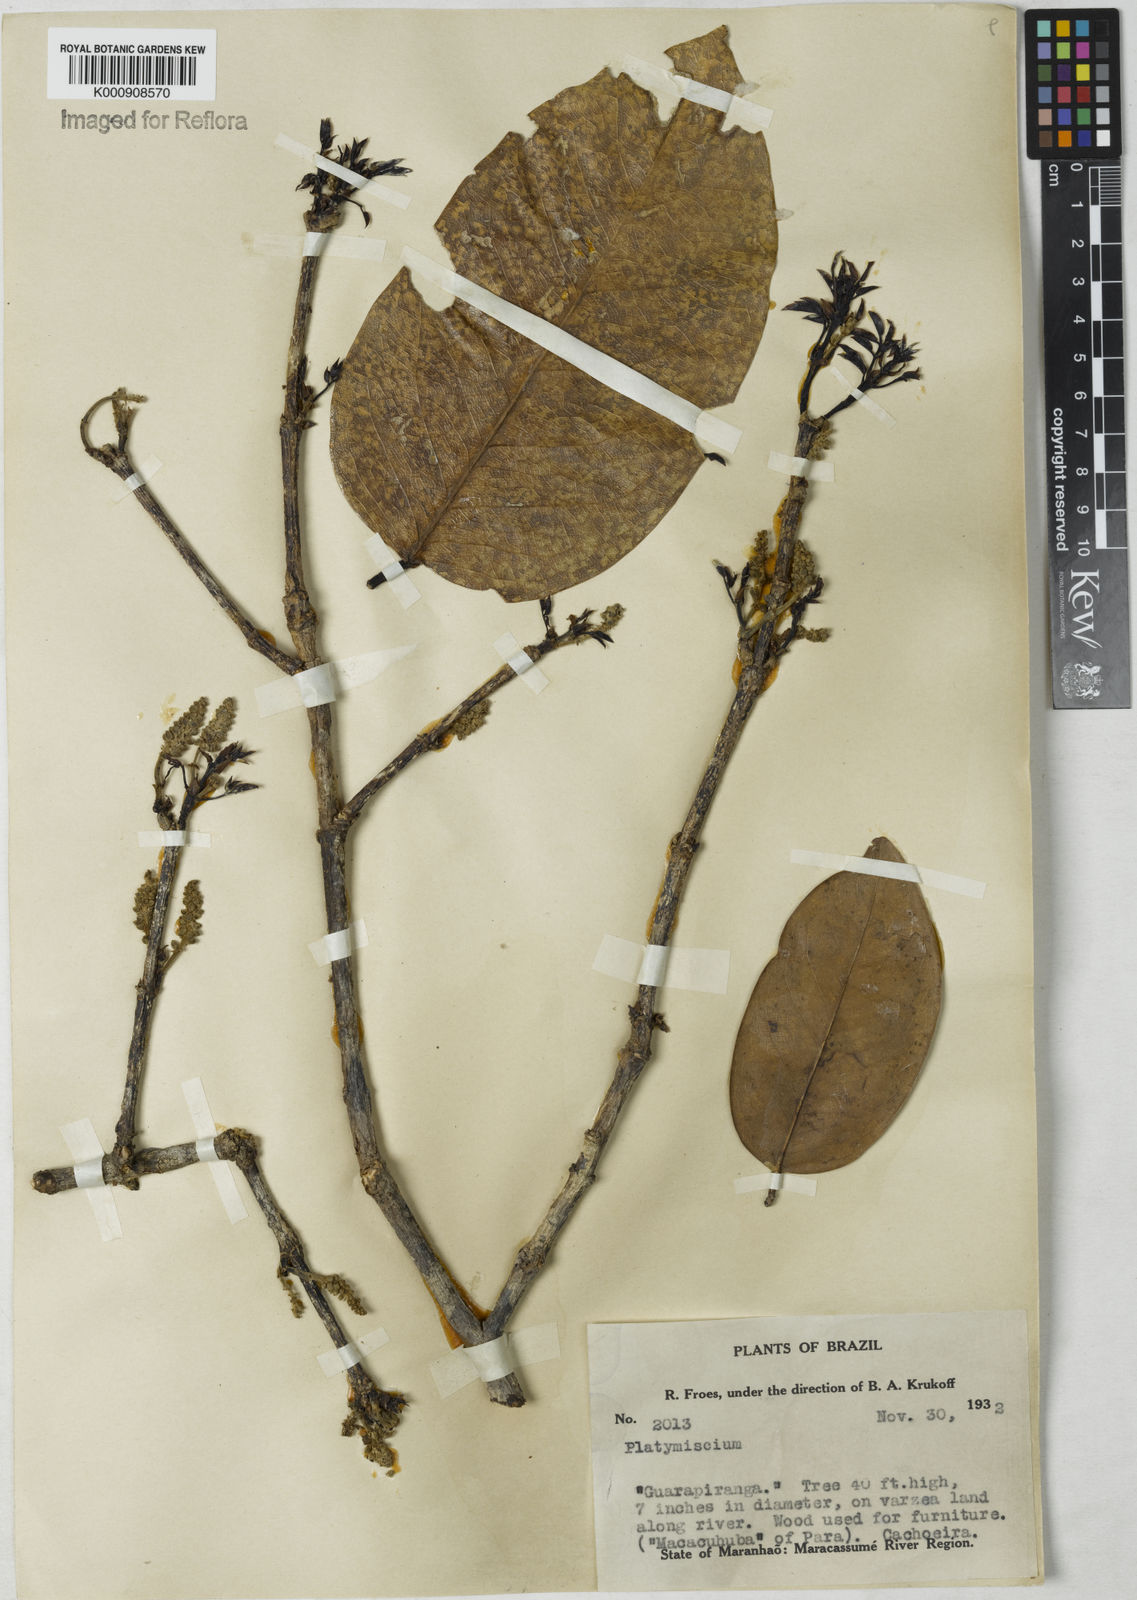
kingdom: Plantae
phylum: Tracheophyta
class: Magnoliopsida
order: Fabales
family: Fabaceae
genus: Platymiscium
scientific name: Platymiscium
